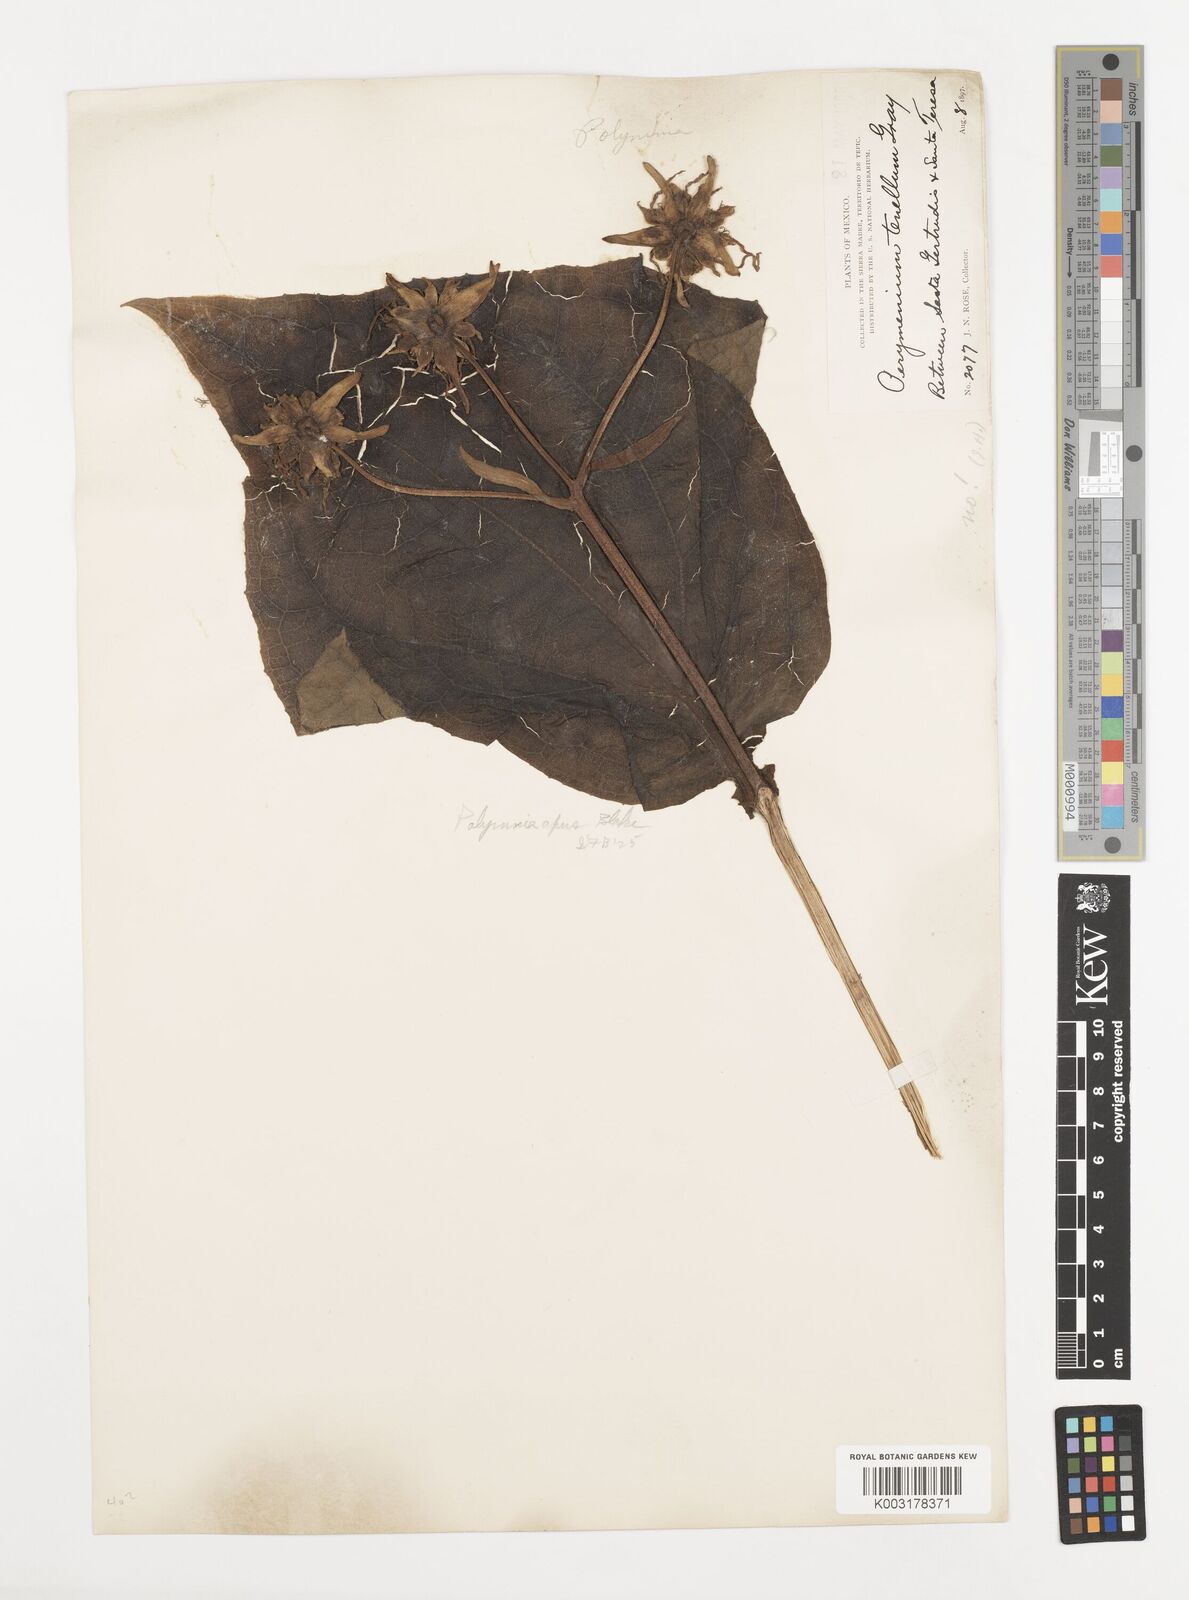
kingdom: Plantae
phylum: Tracheophyta
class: Magnoliopsida
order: Asterales
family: Asteraceae
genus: Smallanthus
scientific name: Smallanthus apus
